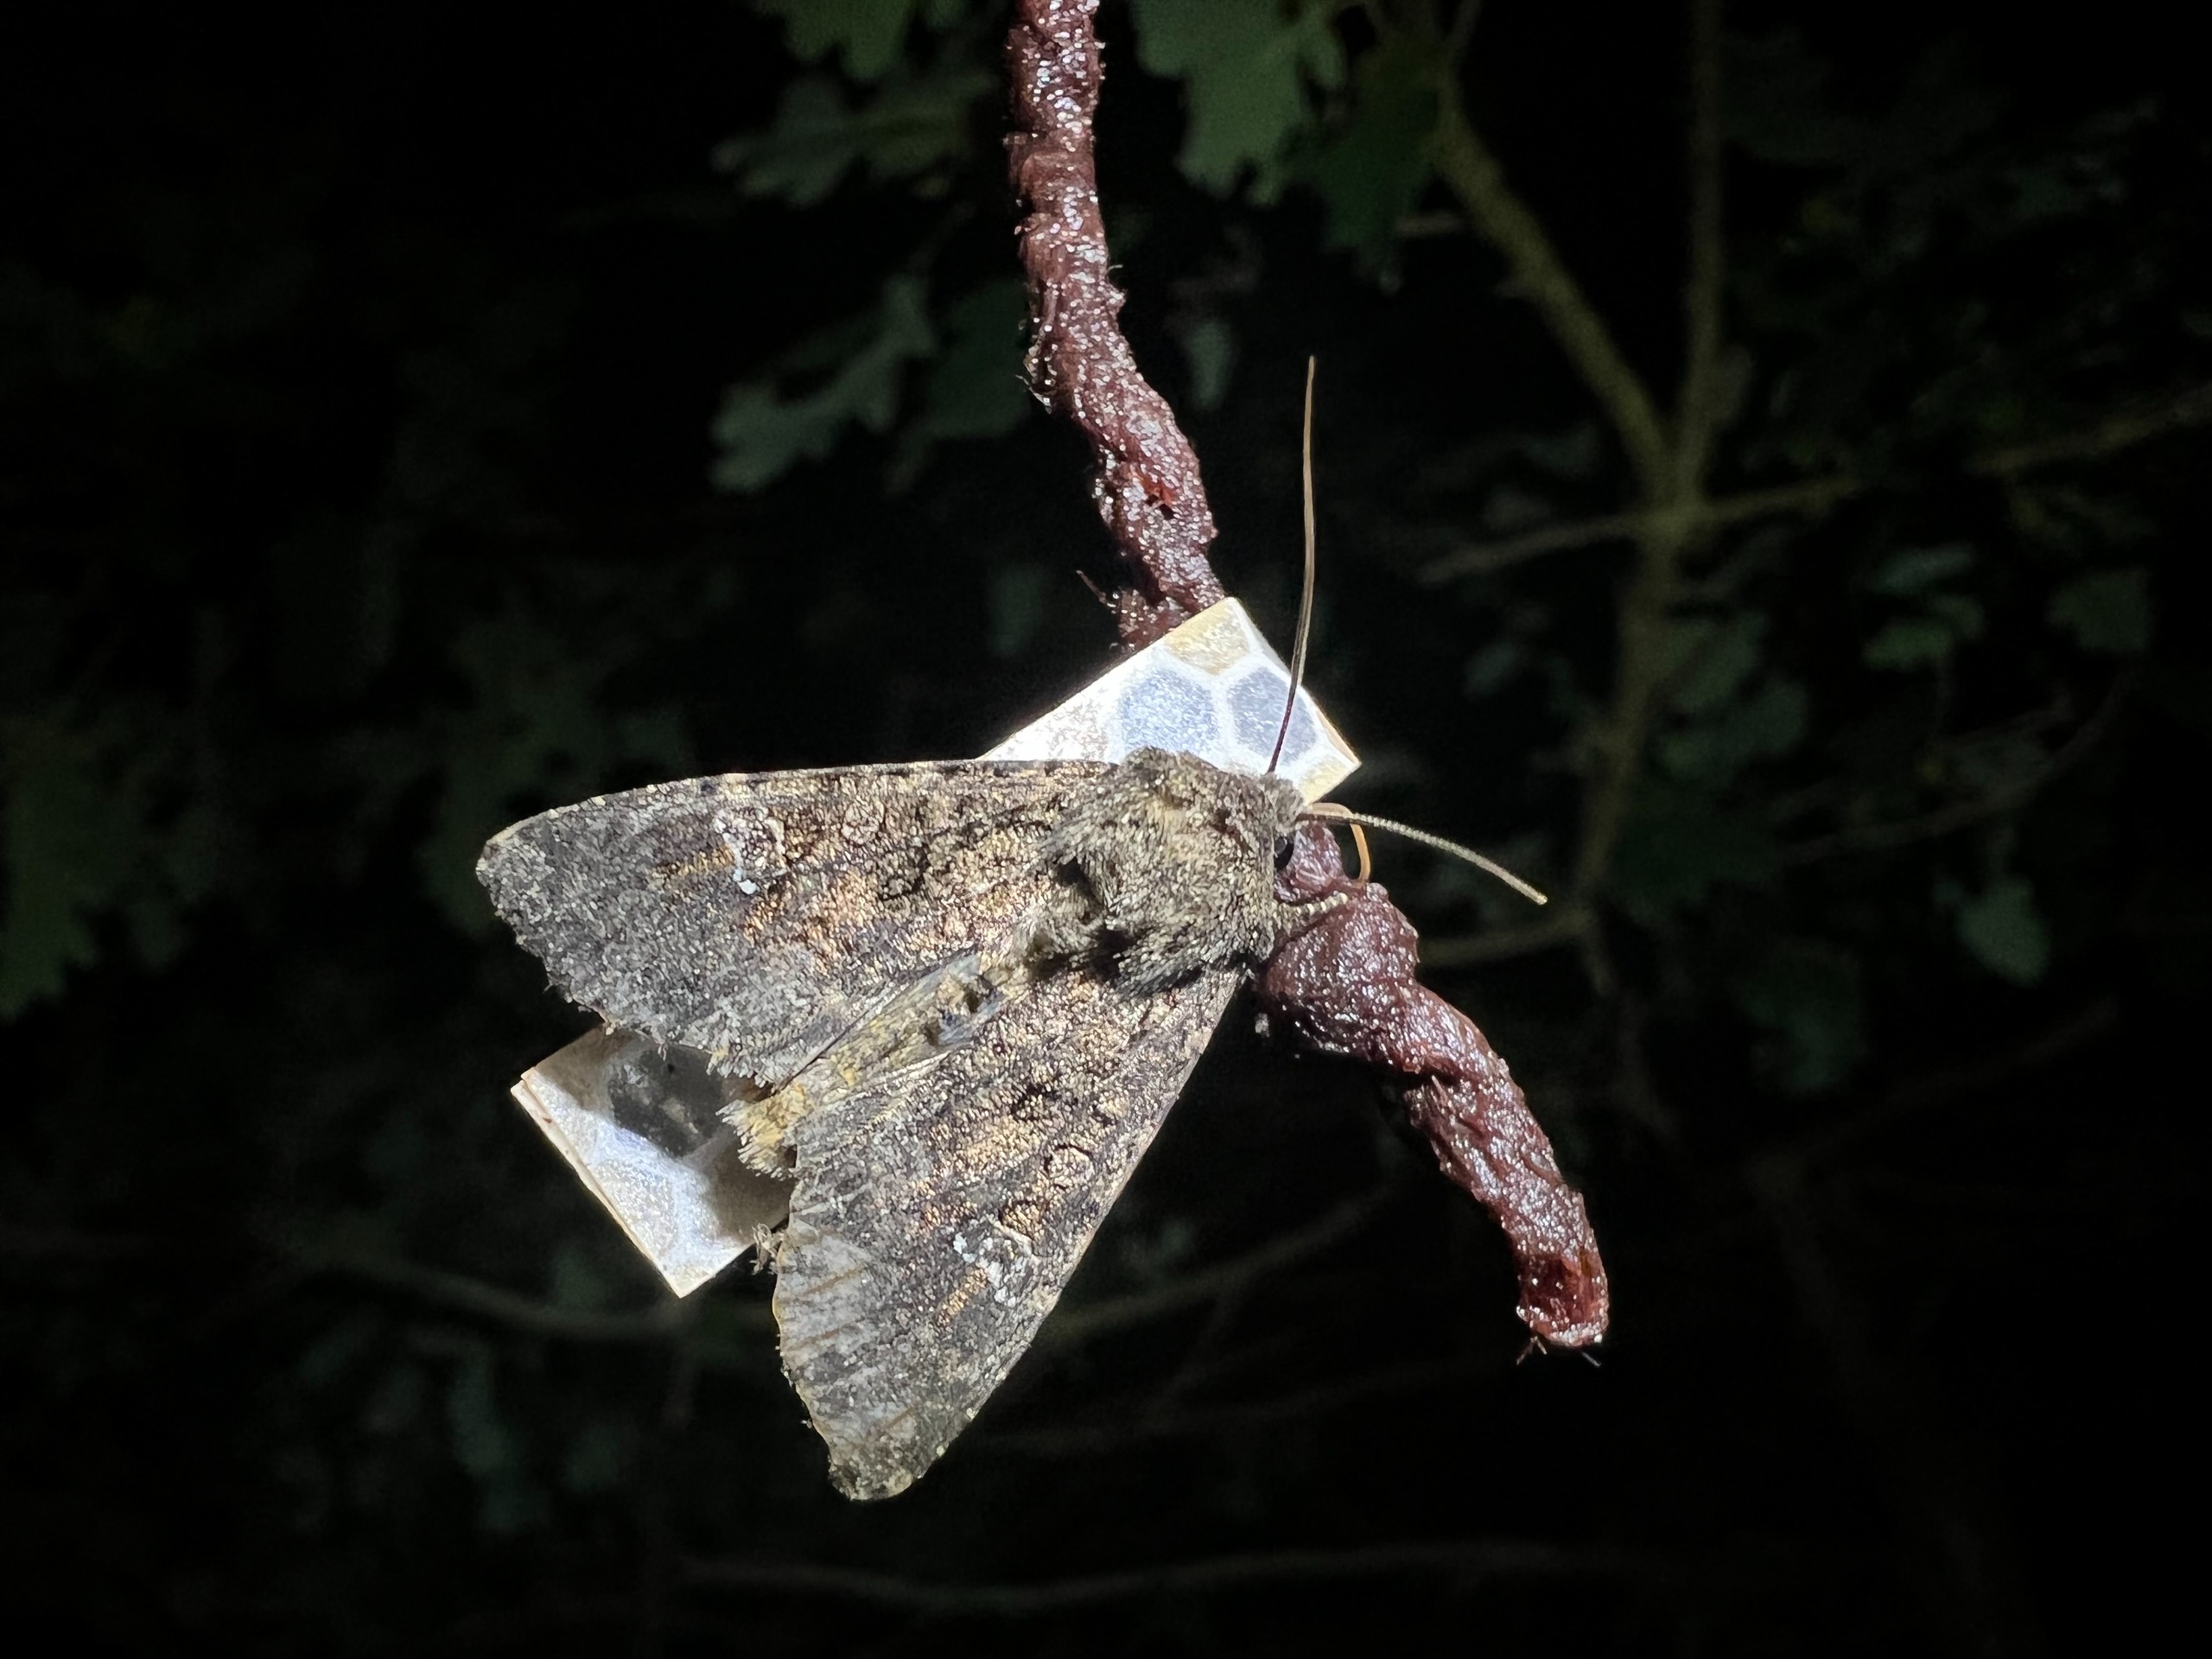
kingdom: Animalia
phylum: Arthropoda
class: Insecta
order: Lepidoptera
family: Noctuidae
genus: Mamestra
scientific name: Mamestra brassicae
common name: Kålugle
